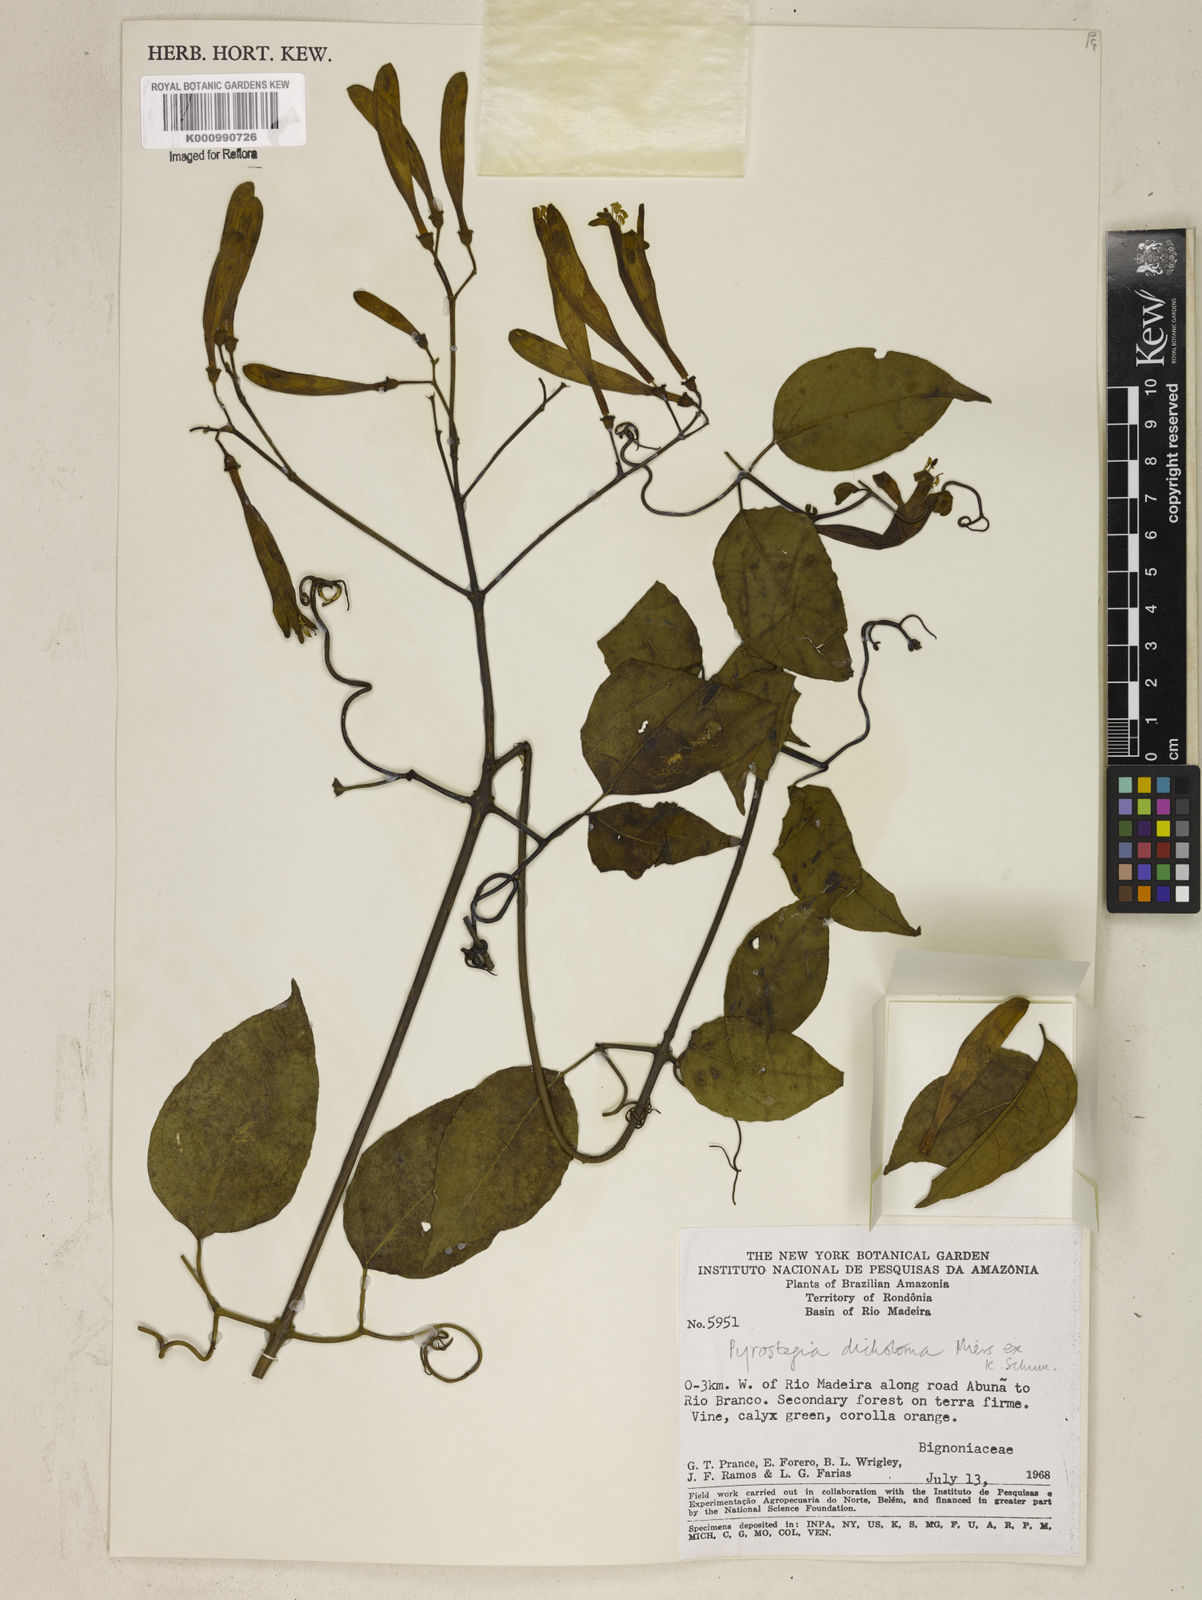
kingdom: Plantae
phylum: Tracheophyta
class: Magnoliopsida
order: Lamiales
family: Bignoniaceae
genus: Pyrostegia
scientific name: Pyrostegia
